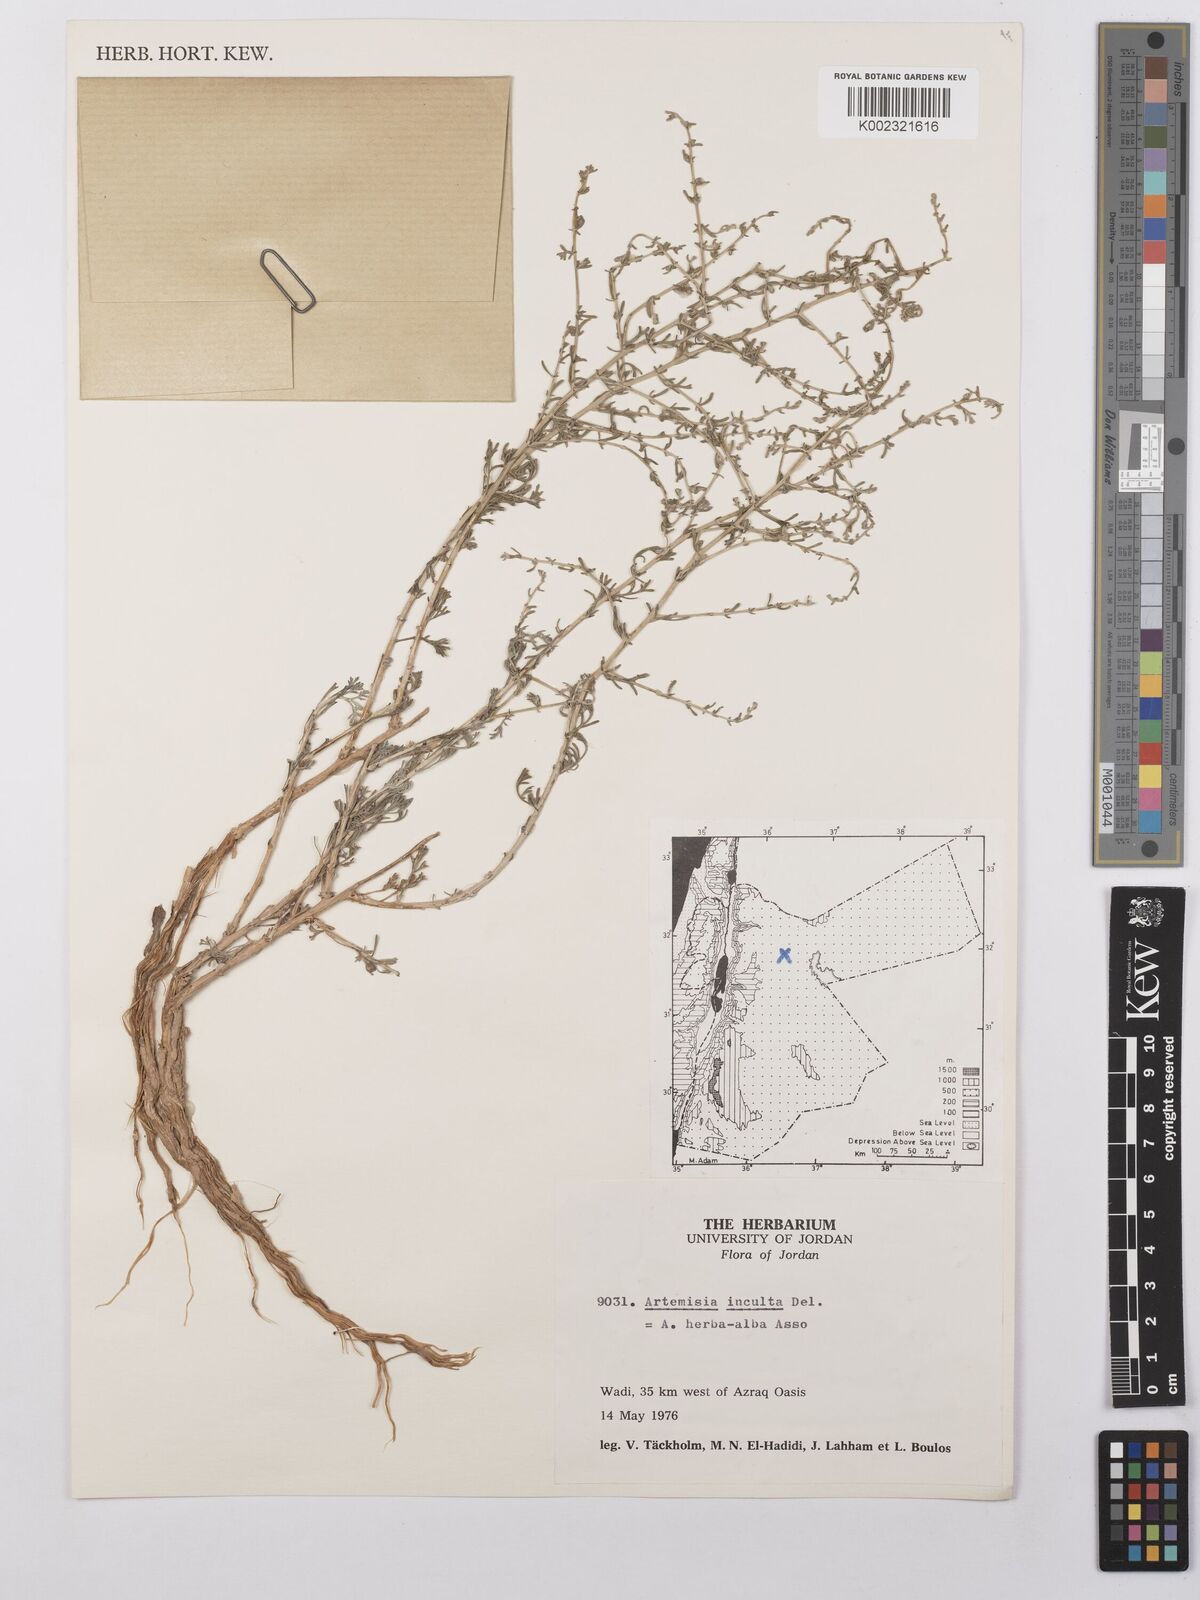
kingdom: Plantae
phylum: Tracheophyta
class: Magnoliopsida
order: Asterales
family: Asteraceae
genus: Artemisia
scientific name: Artemisia herba-alba
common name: White wormwood
